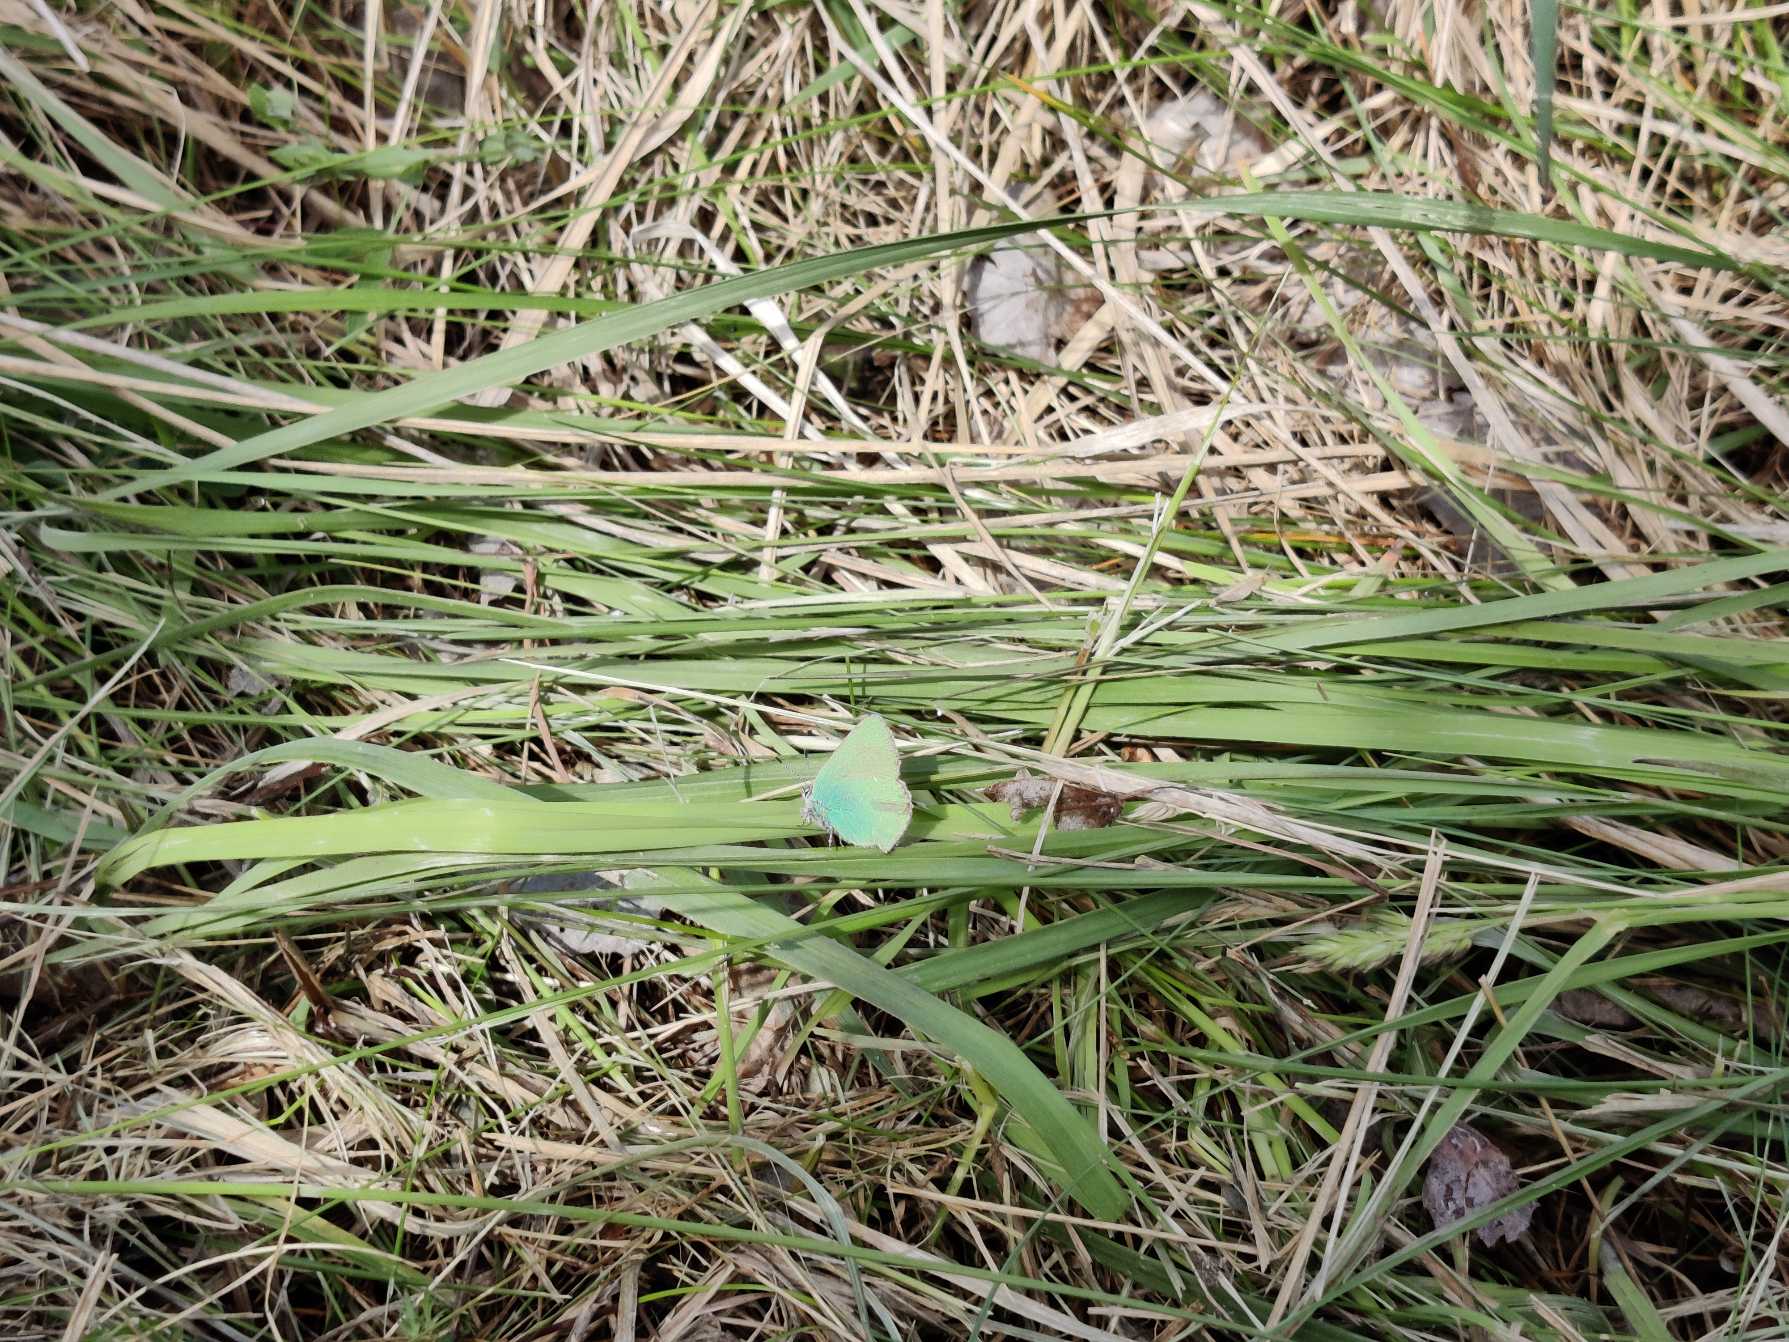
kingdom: Animalia
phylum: Arthropoda
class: Insecta
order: Lepidoptera
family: Lycaenidae
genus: Callophrys
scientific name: Callophrys rubi
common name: Grøn busksommerfugl
